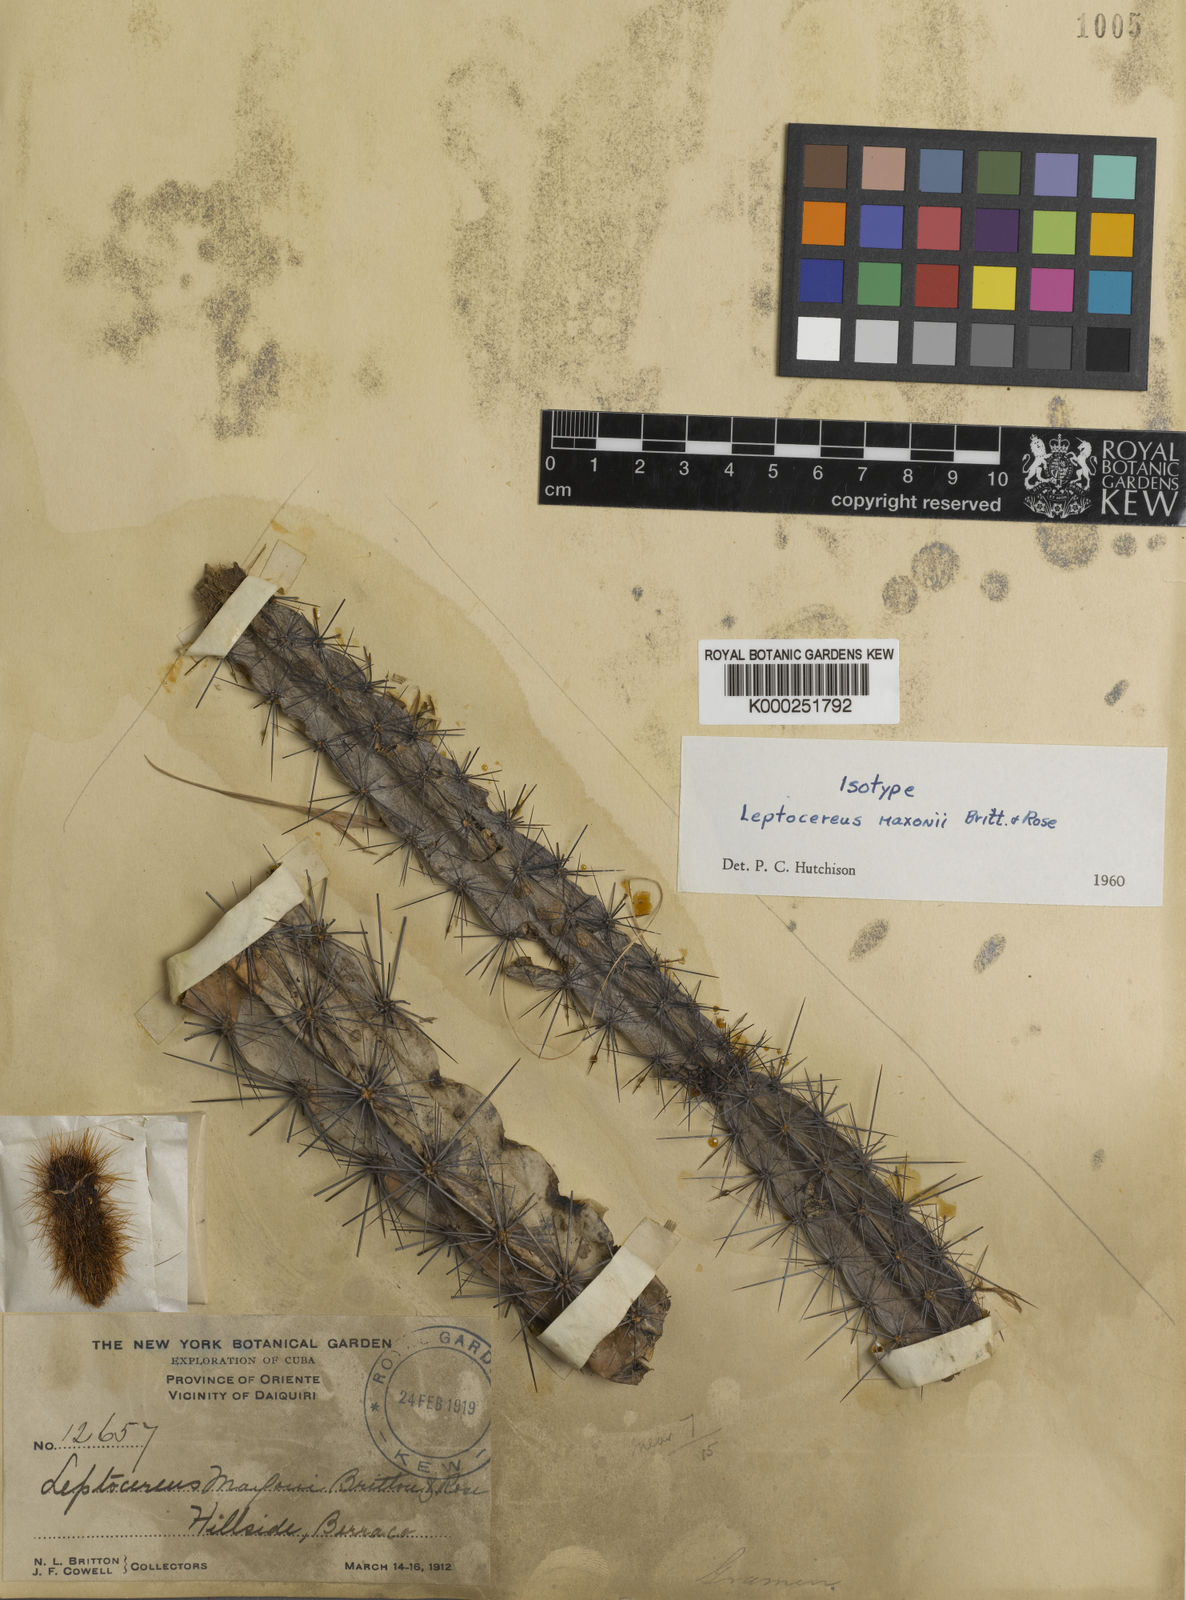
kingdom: Plantae
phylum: Tracheophyta
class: Magnoliopsida
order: Caryophyllales
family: Cactaceae
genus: Leptocereus
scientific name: Leptocereus sylvestris
